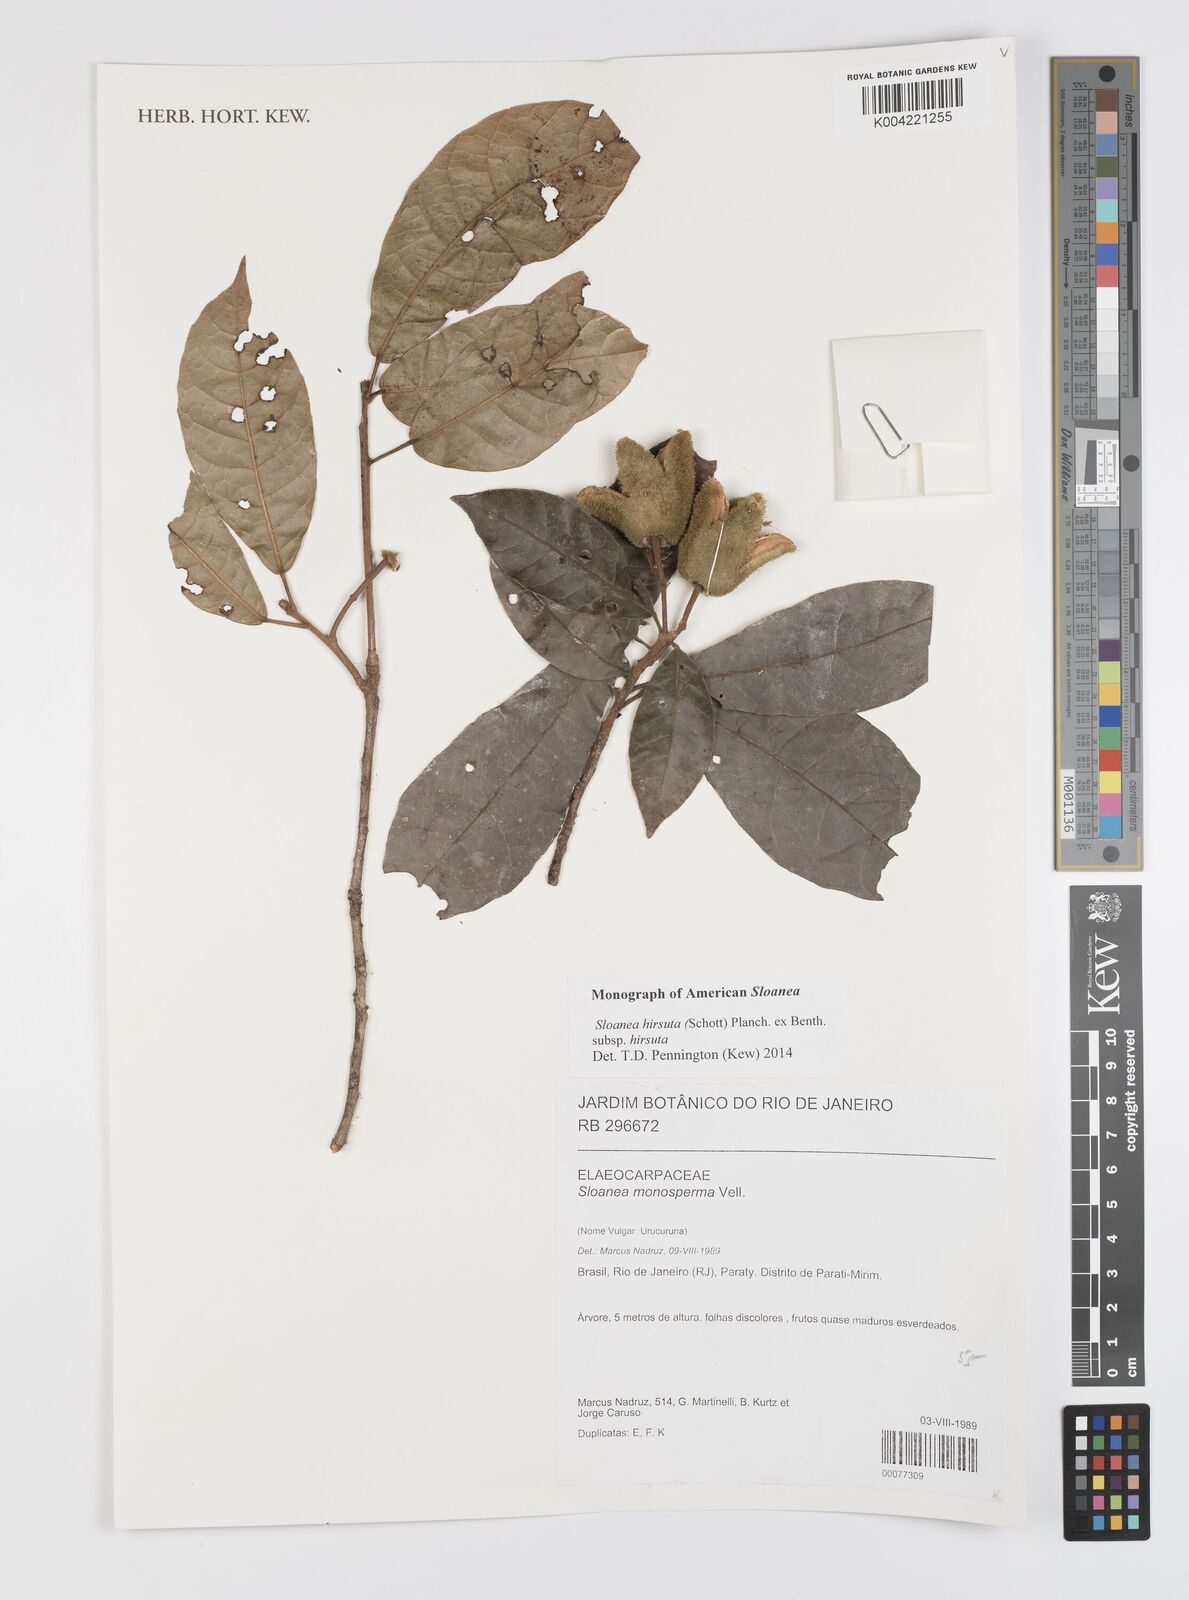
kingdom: Plantae
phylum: Tracheophyta
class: Magnoliopsida
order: Oxalidales
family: Elaeocarpaceae
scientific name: Elaeocarpaceae
